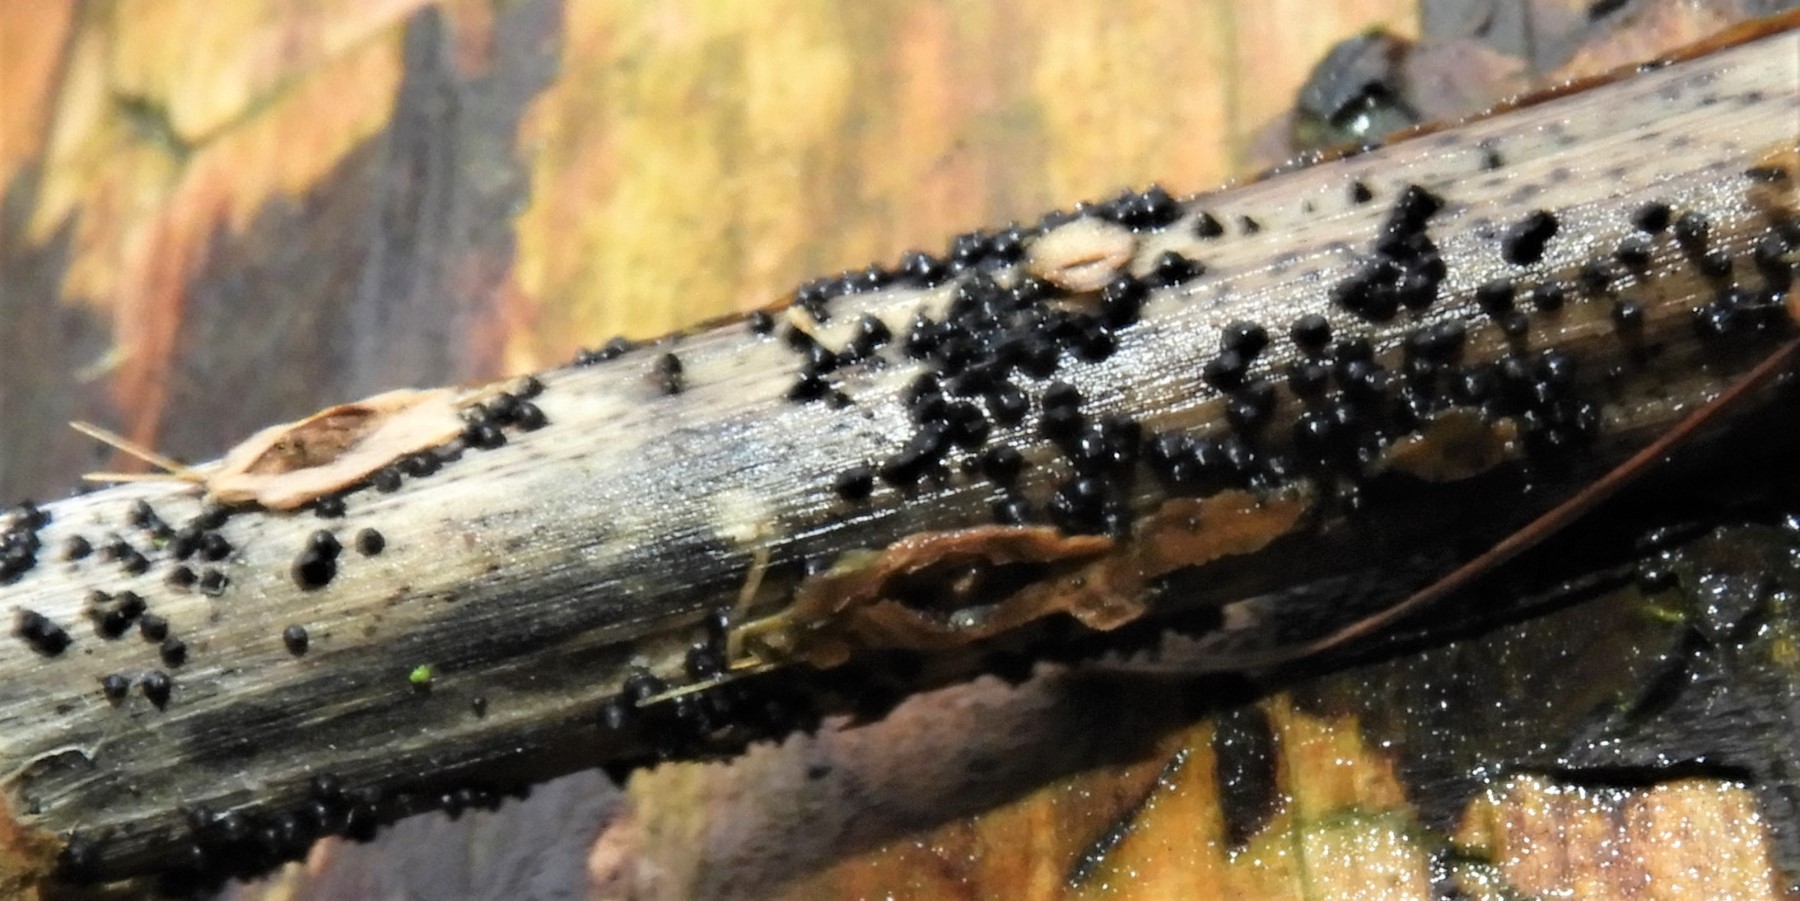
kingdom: Fungi
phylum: Ascomycota
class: Dothideomycetes
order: Pleosporales
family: Leptosphaeriaceae
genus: Leptosphaeria
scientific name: Leptosphaeria
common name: kulkegle
